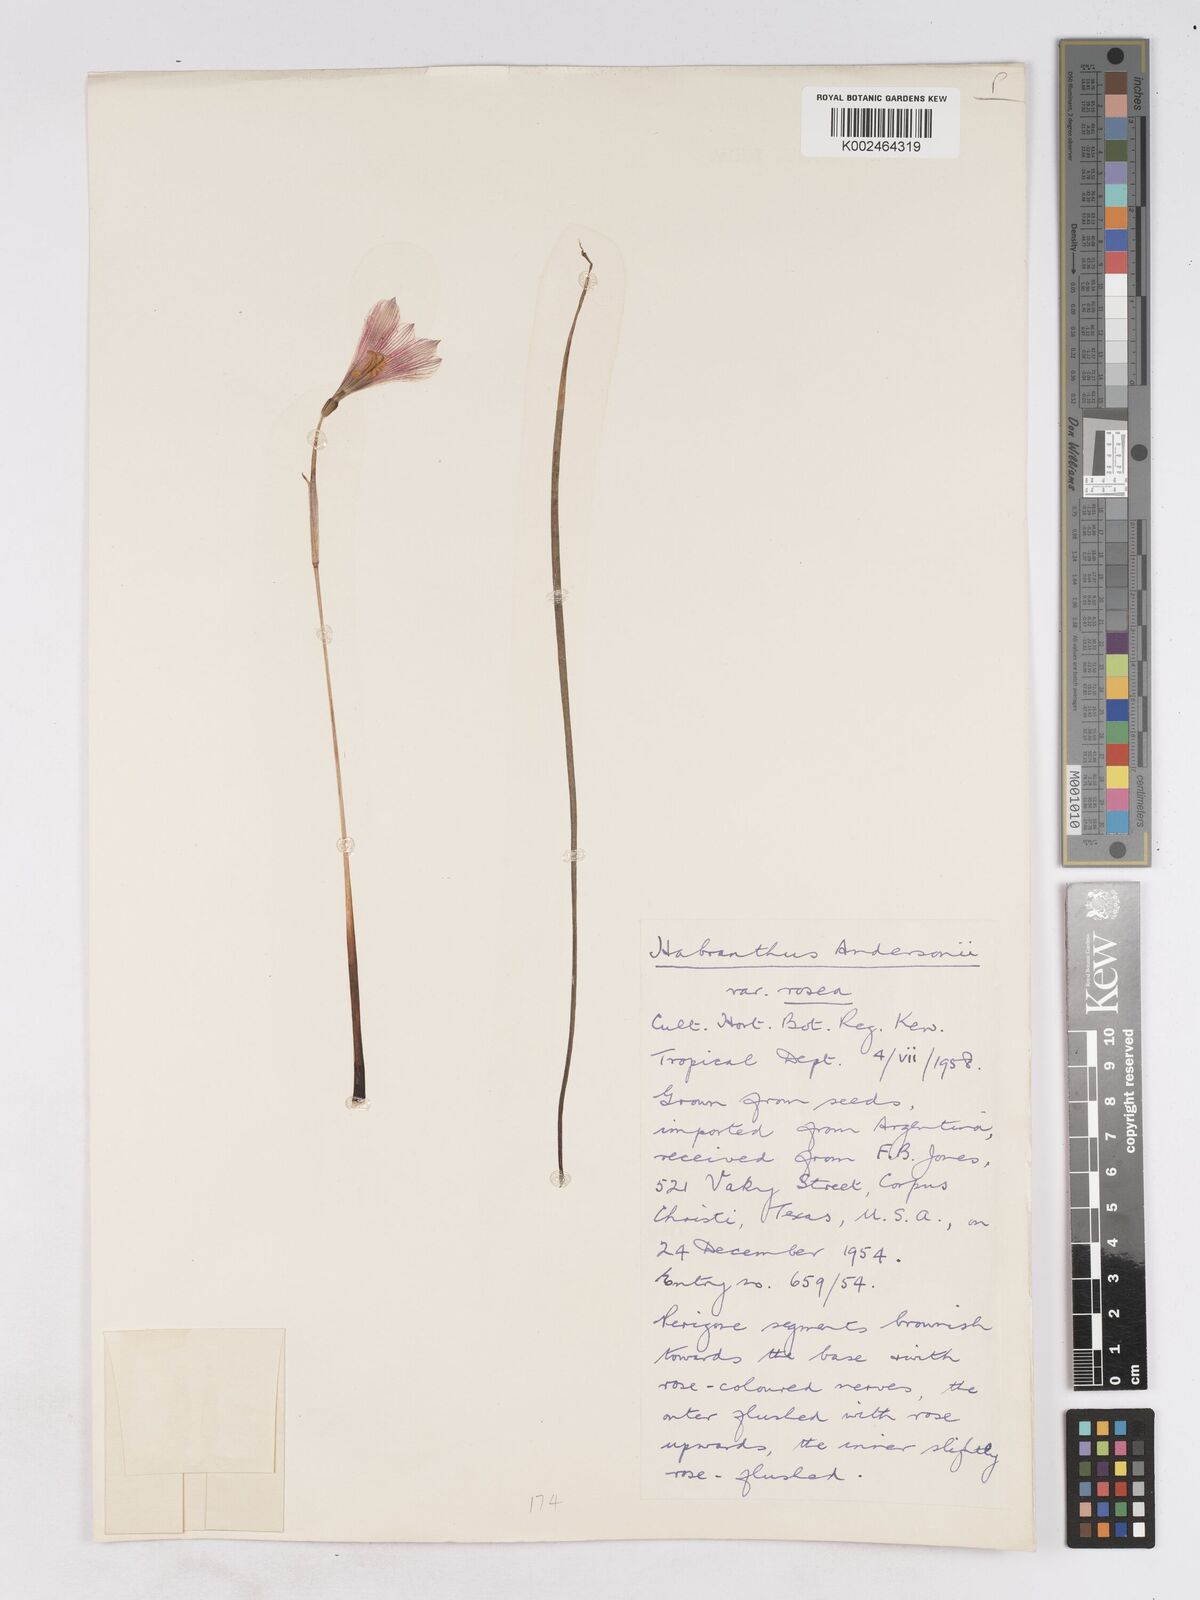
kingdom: Plantae
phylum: Tracheophyta
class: Liliopsida
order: Asparagales
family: Amaryllidaceae
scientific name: Amaryllidaceae
